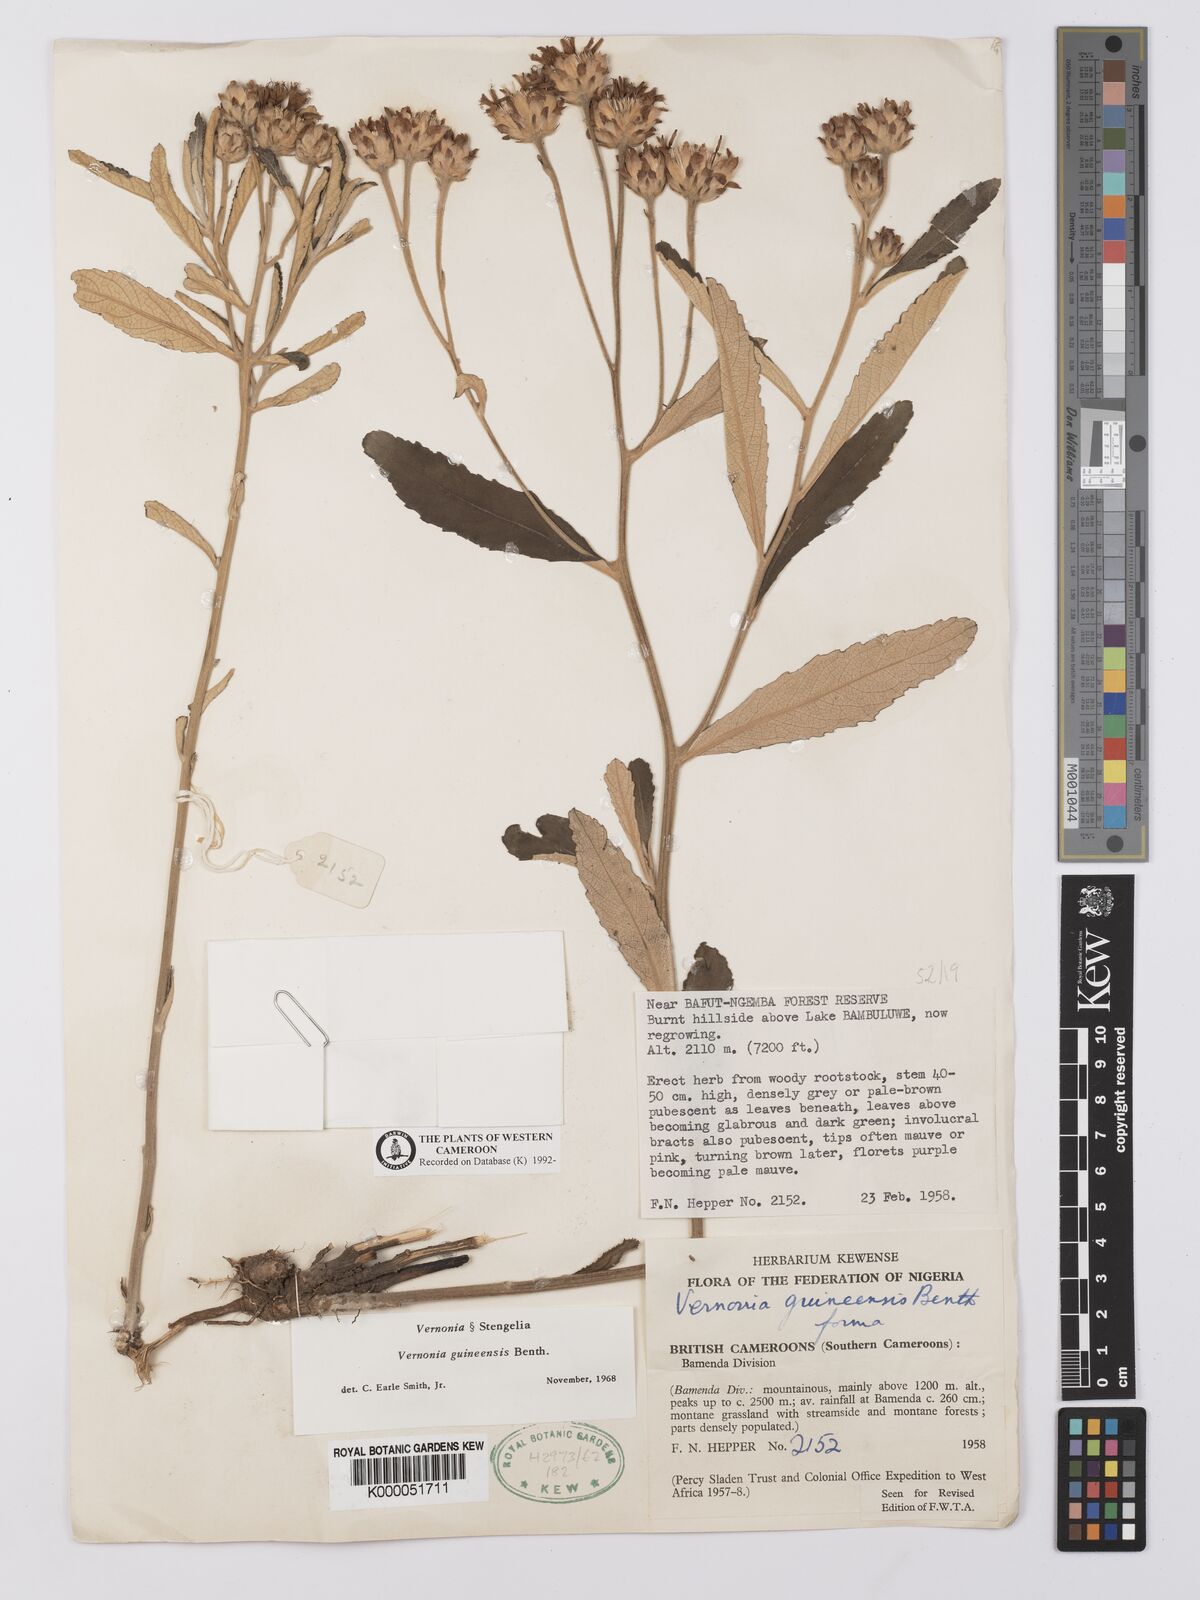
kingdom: Plantae
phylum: Tracheophyta
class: Magnoliopsida
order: Asterales
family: Asteraceae
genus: Baccharoides
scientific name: Baccharoides guineensis
